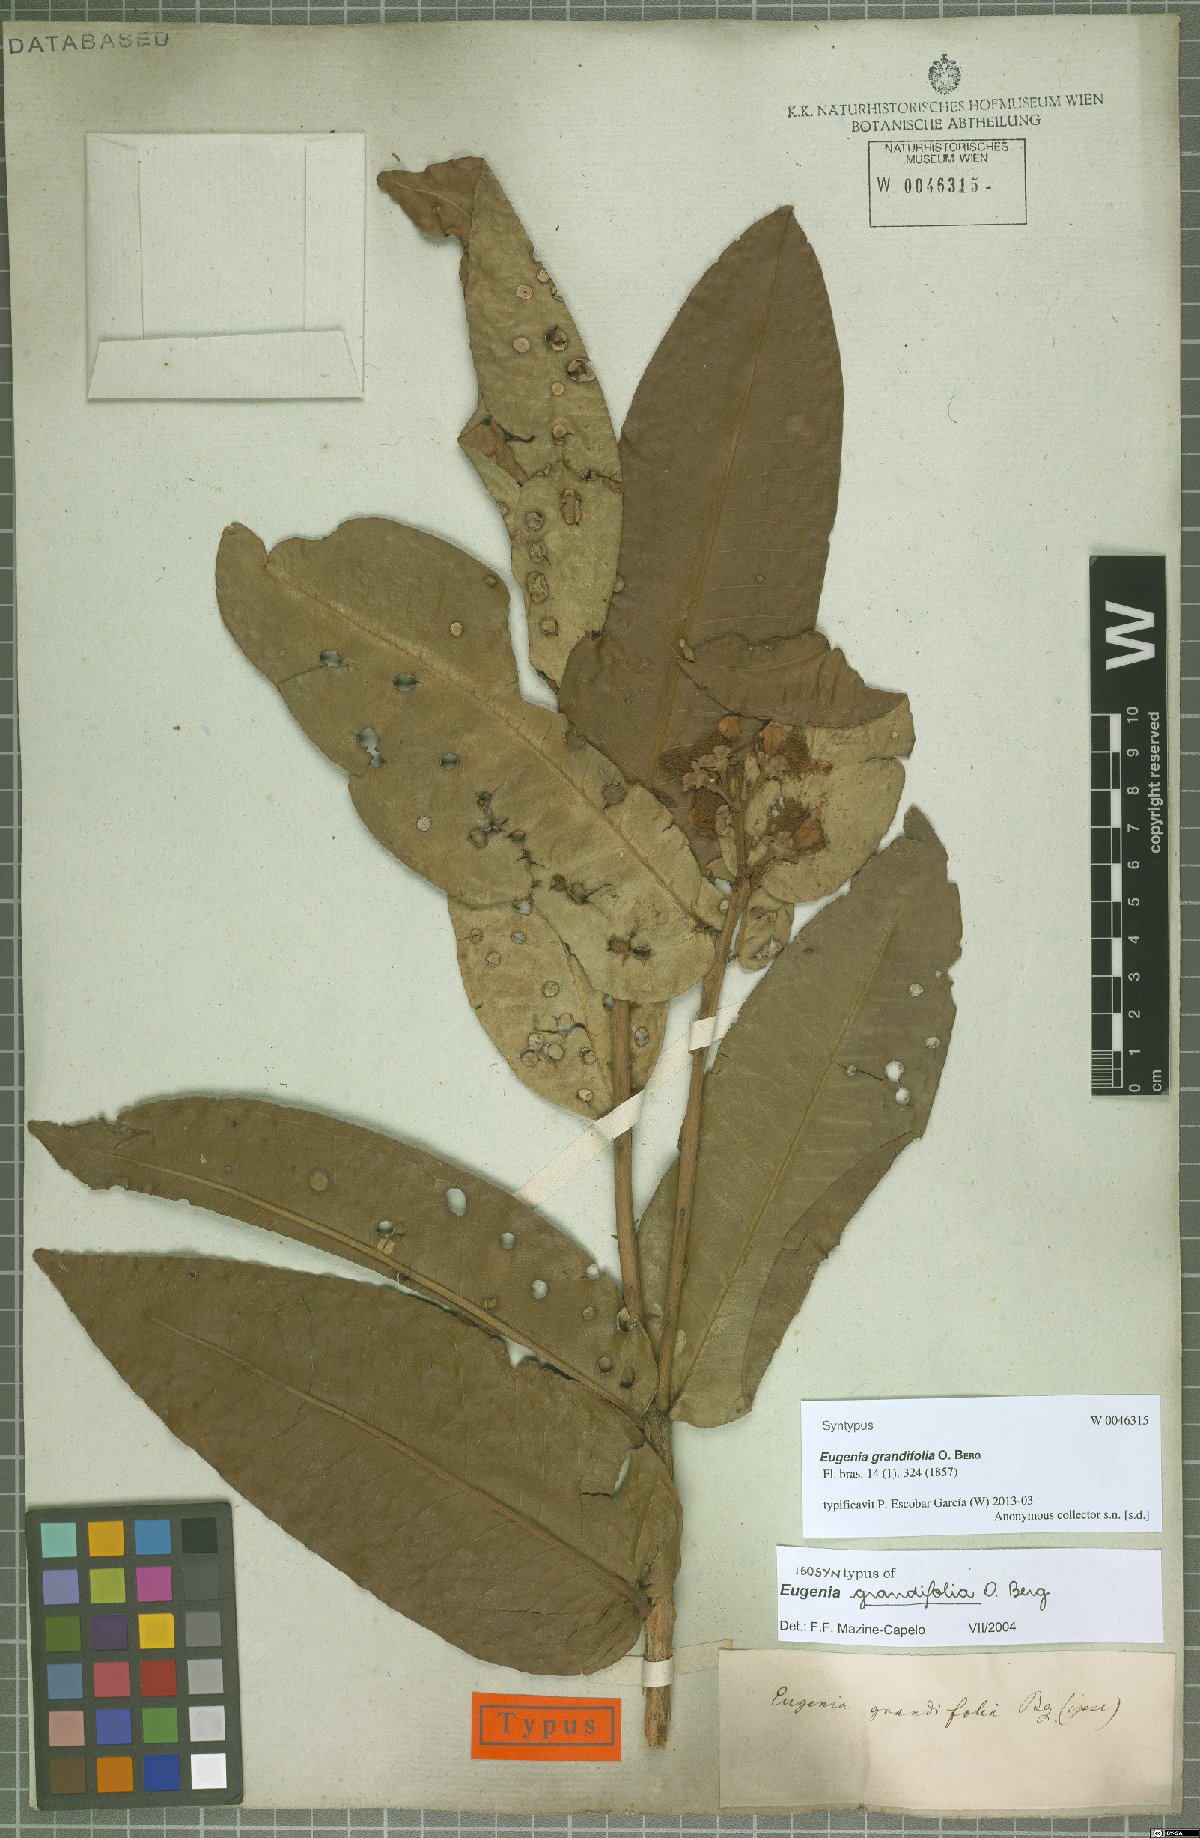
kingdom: Plantae
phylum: Tracheophyta
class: Magnoliopsida
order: Myrtales
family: Myrtaceae
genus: Eugenia
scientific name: Eugenia grandifolia
